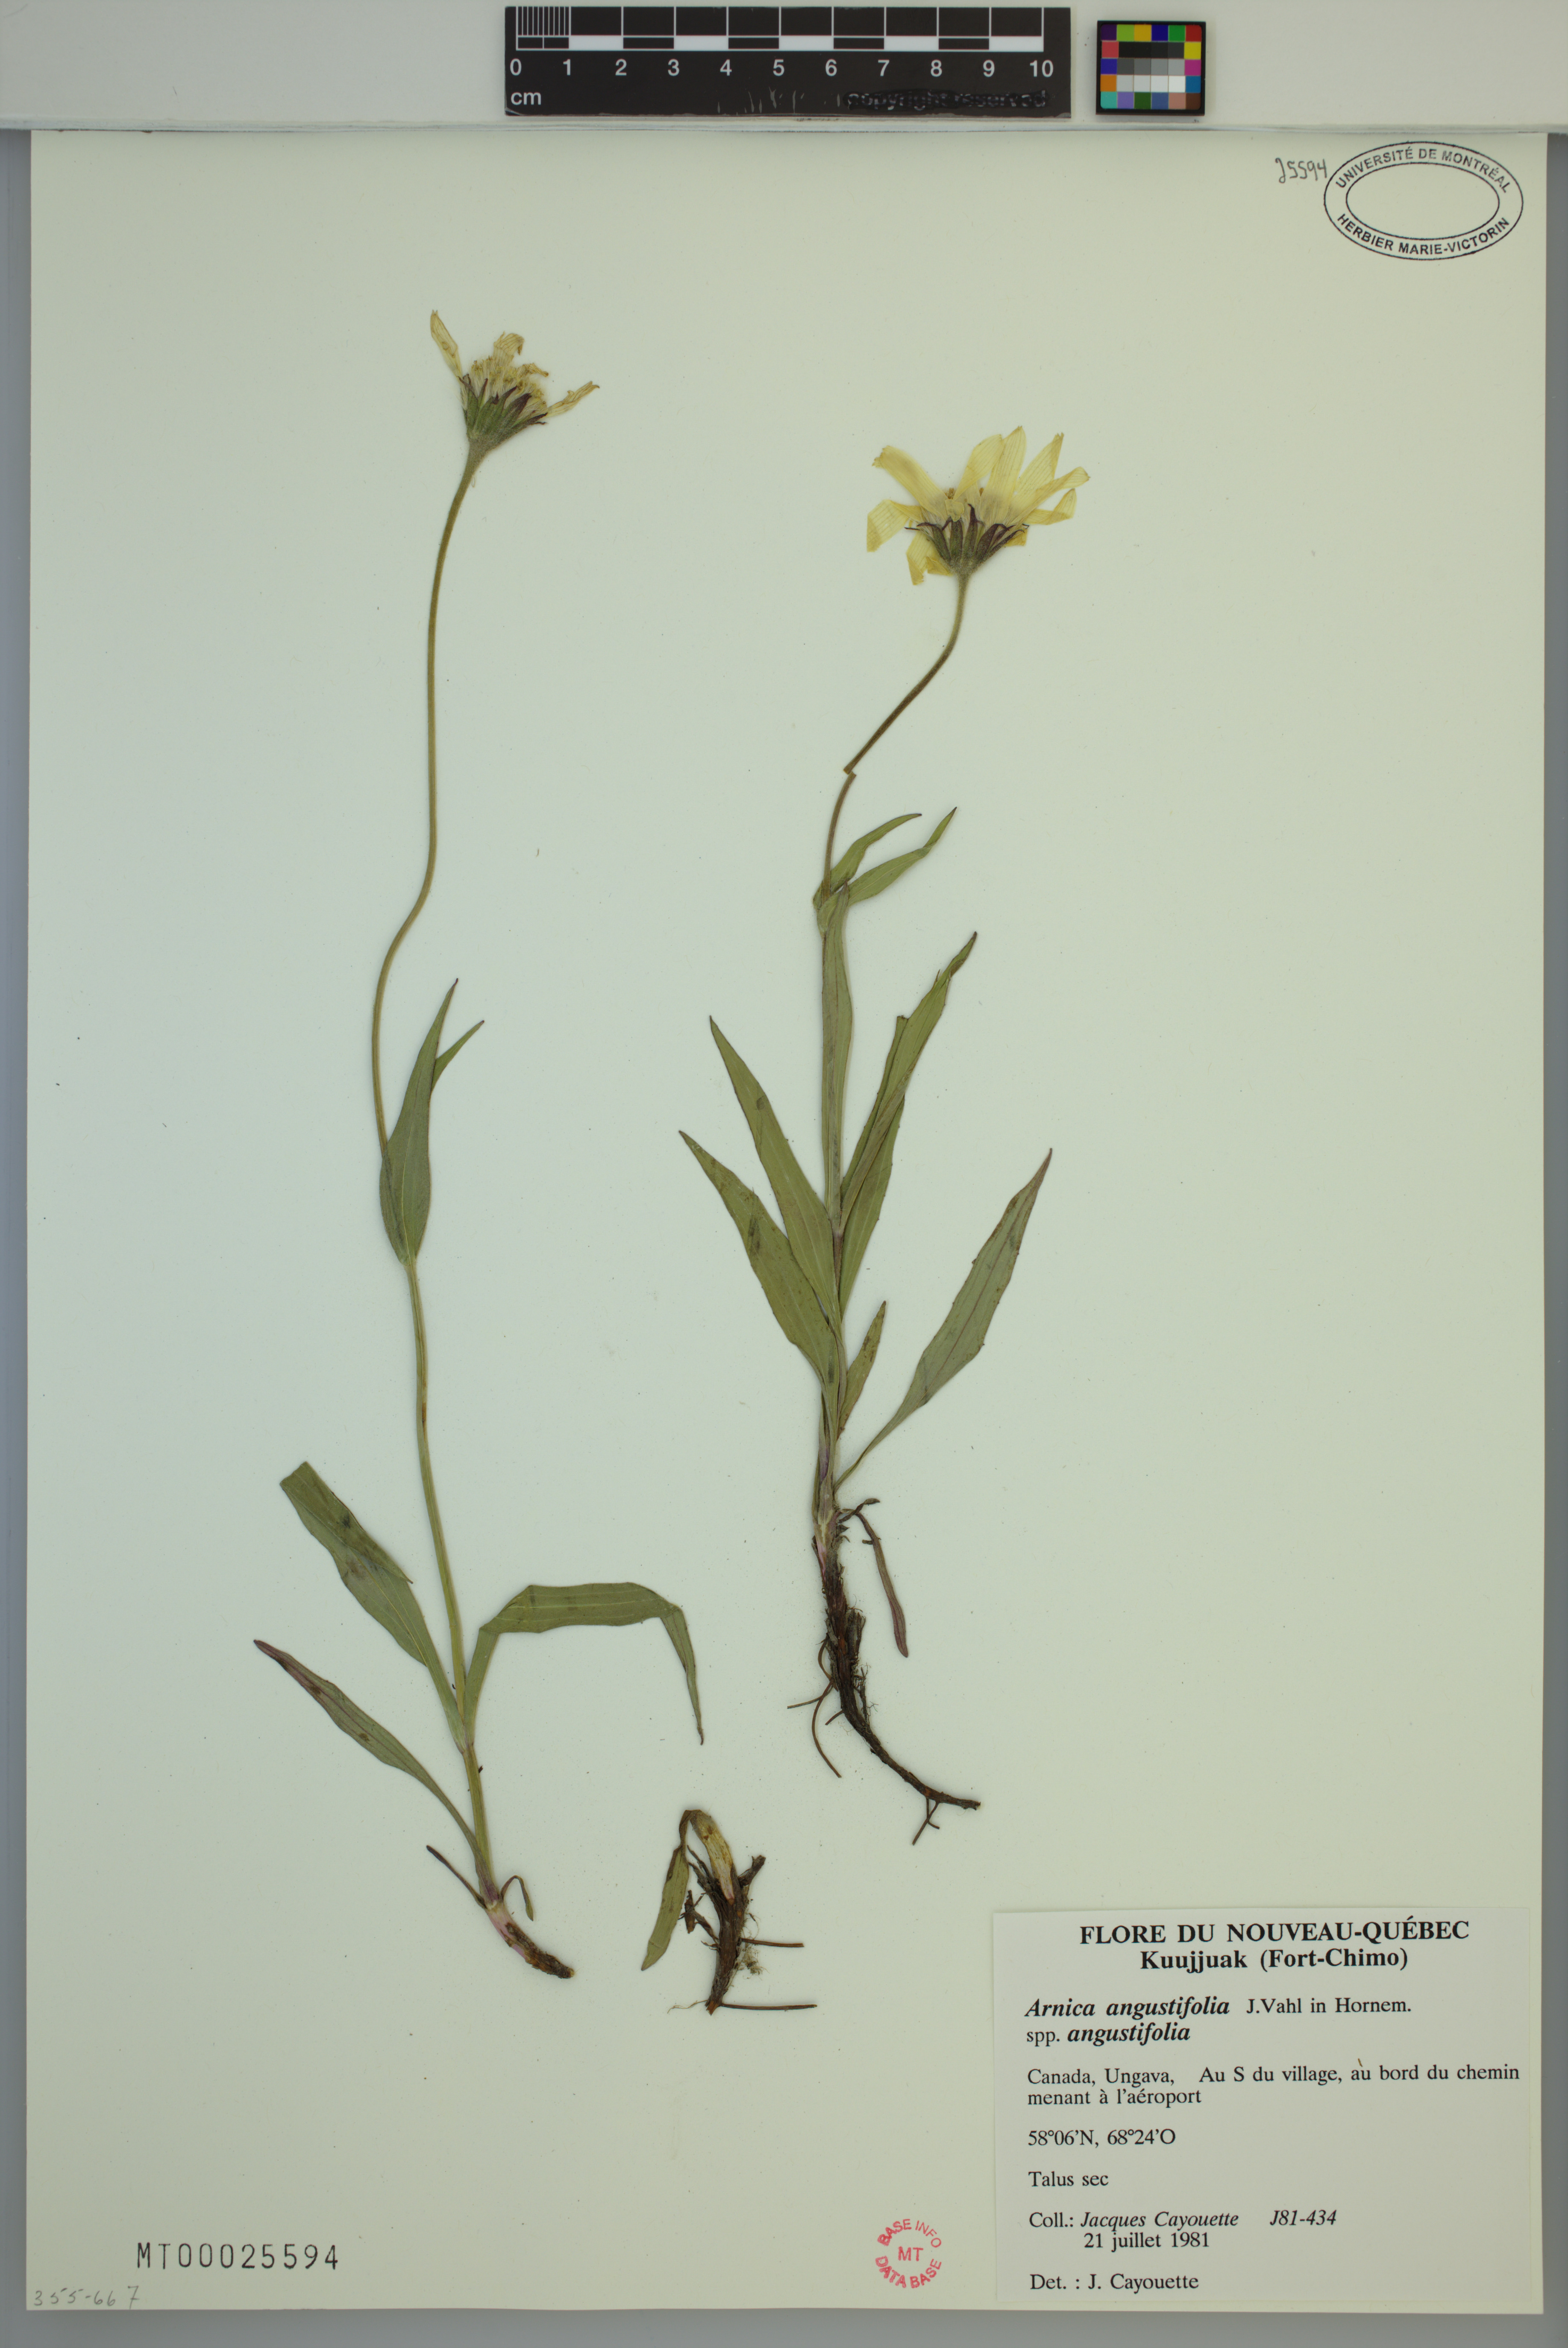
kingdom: Plantae
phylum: Tracheophyta
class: Magnoliopsida
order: Asterales
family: Asteraceae
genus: Arnica
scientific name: Arnica angustifolia
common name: Arctic arnica
